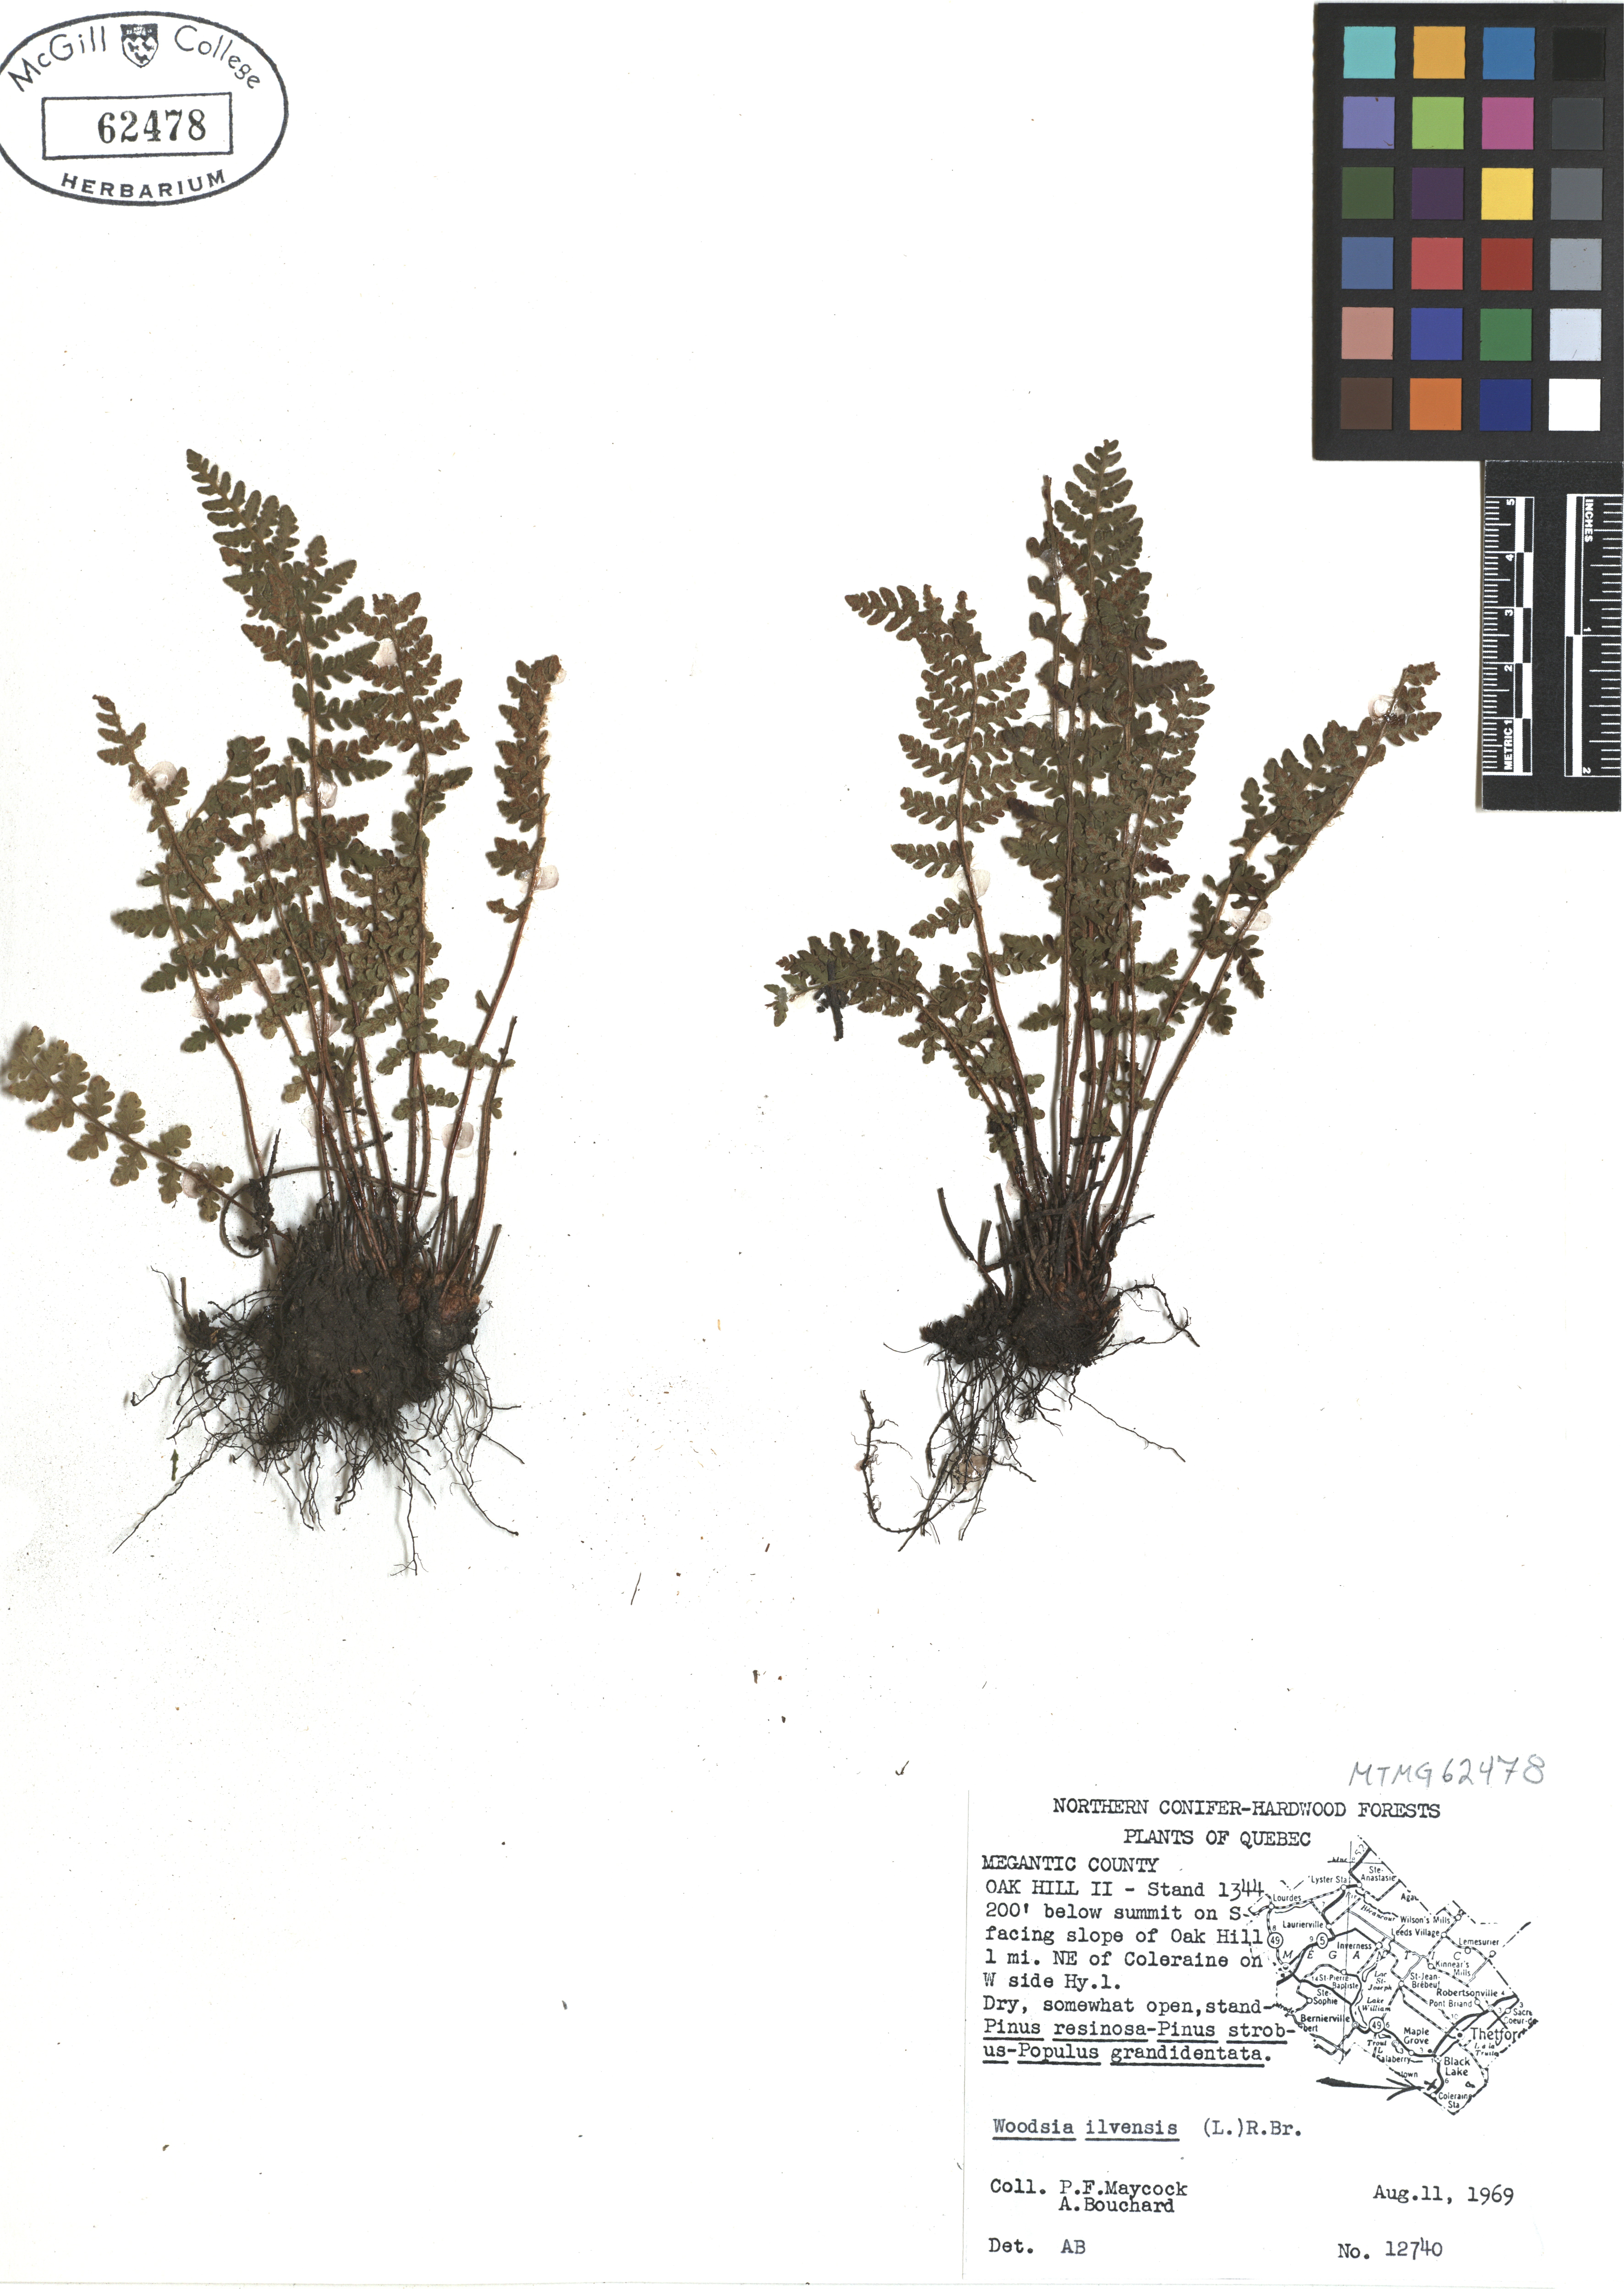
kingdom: Plantae
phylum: Tracheophyta
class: Polypodiopsida
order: Polypodiales
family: Woodsiaceae
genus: Woodsia
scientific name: Woodsia ilvensis
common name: Fragrant woodsia
